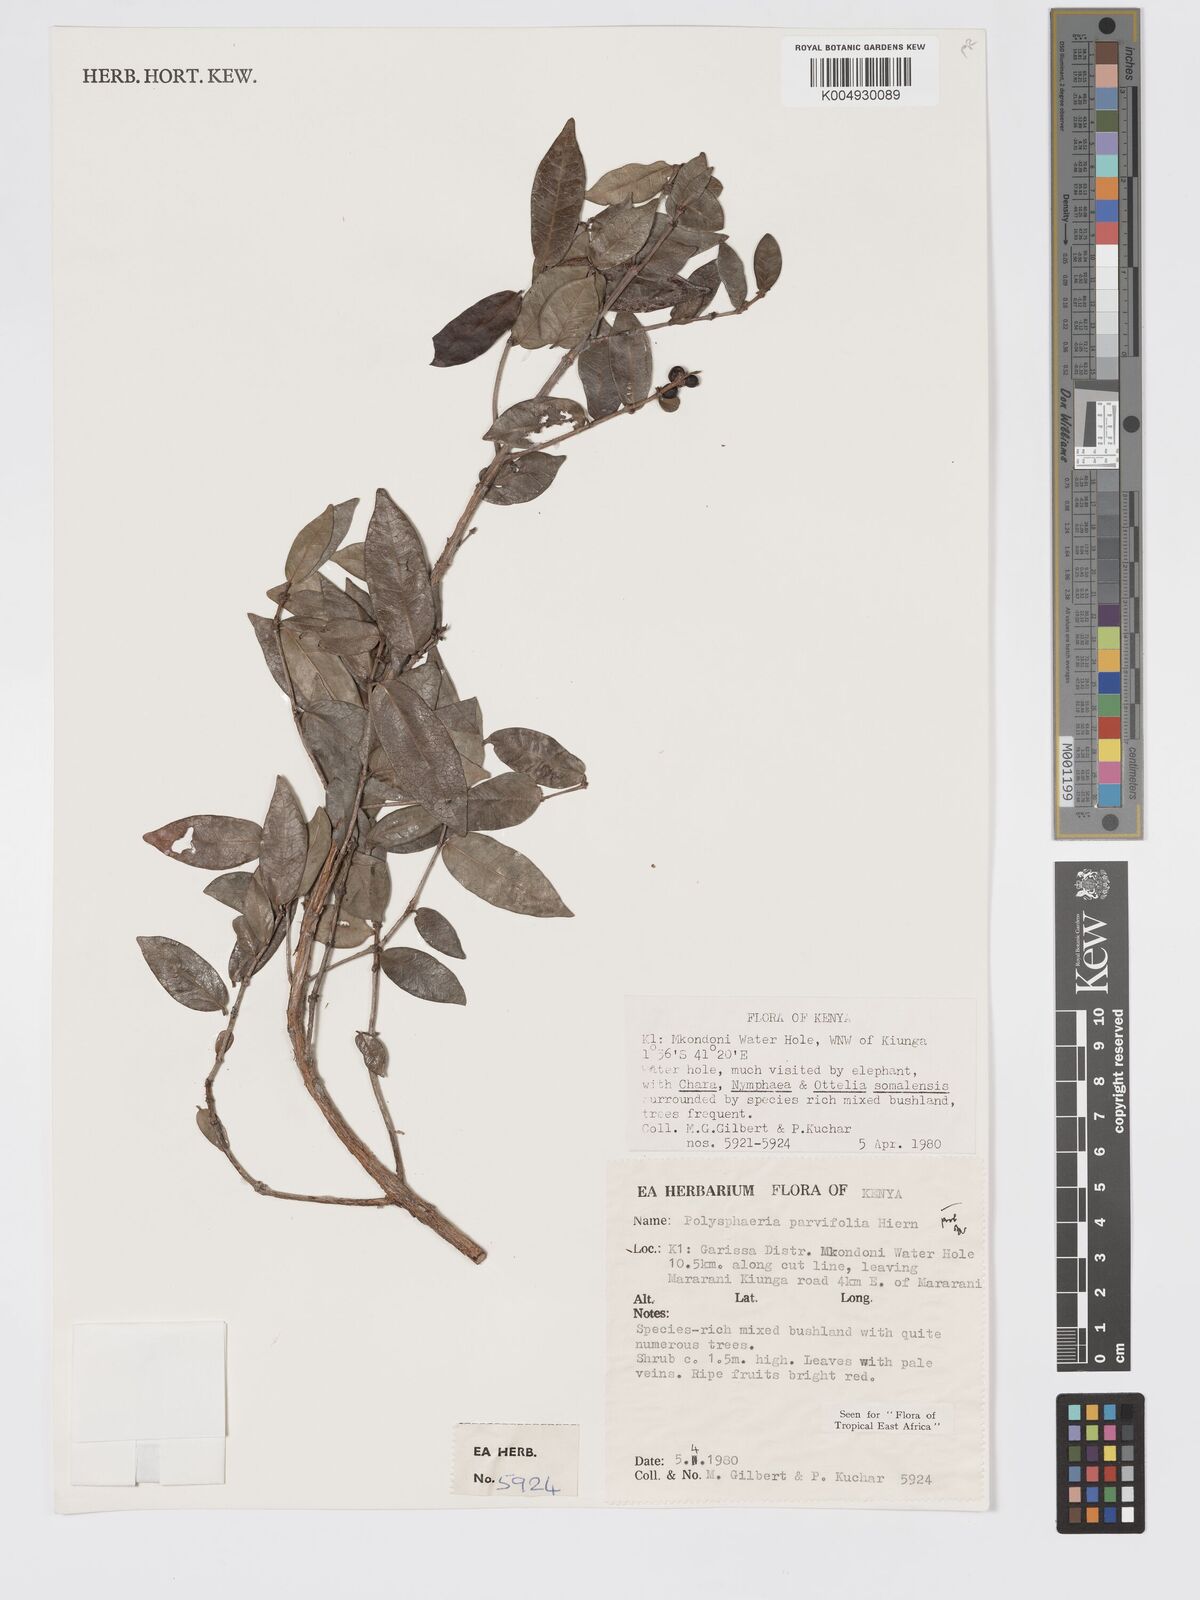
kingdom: Plantae
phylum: Tracheophyta
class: Magnoliopsida
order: Gentianales
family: Rubiaceae
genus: Eumachia
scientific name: Eumachia parviflora
